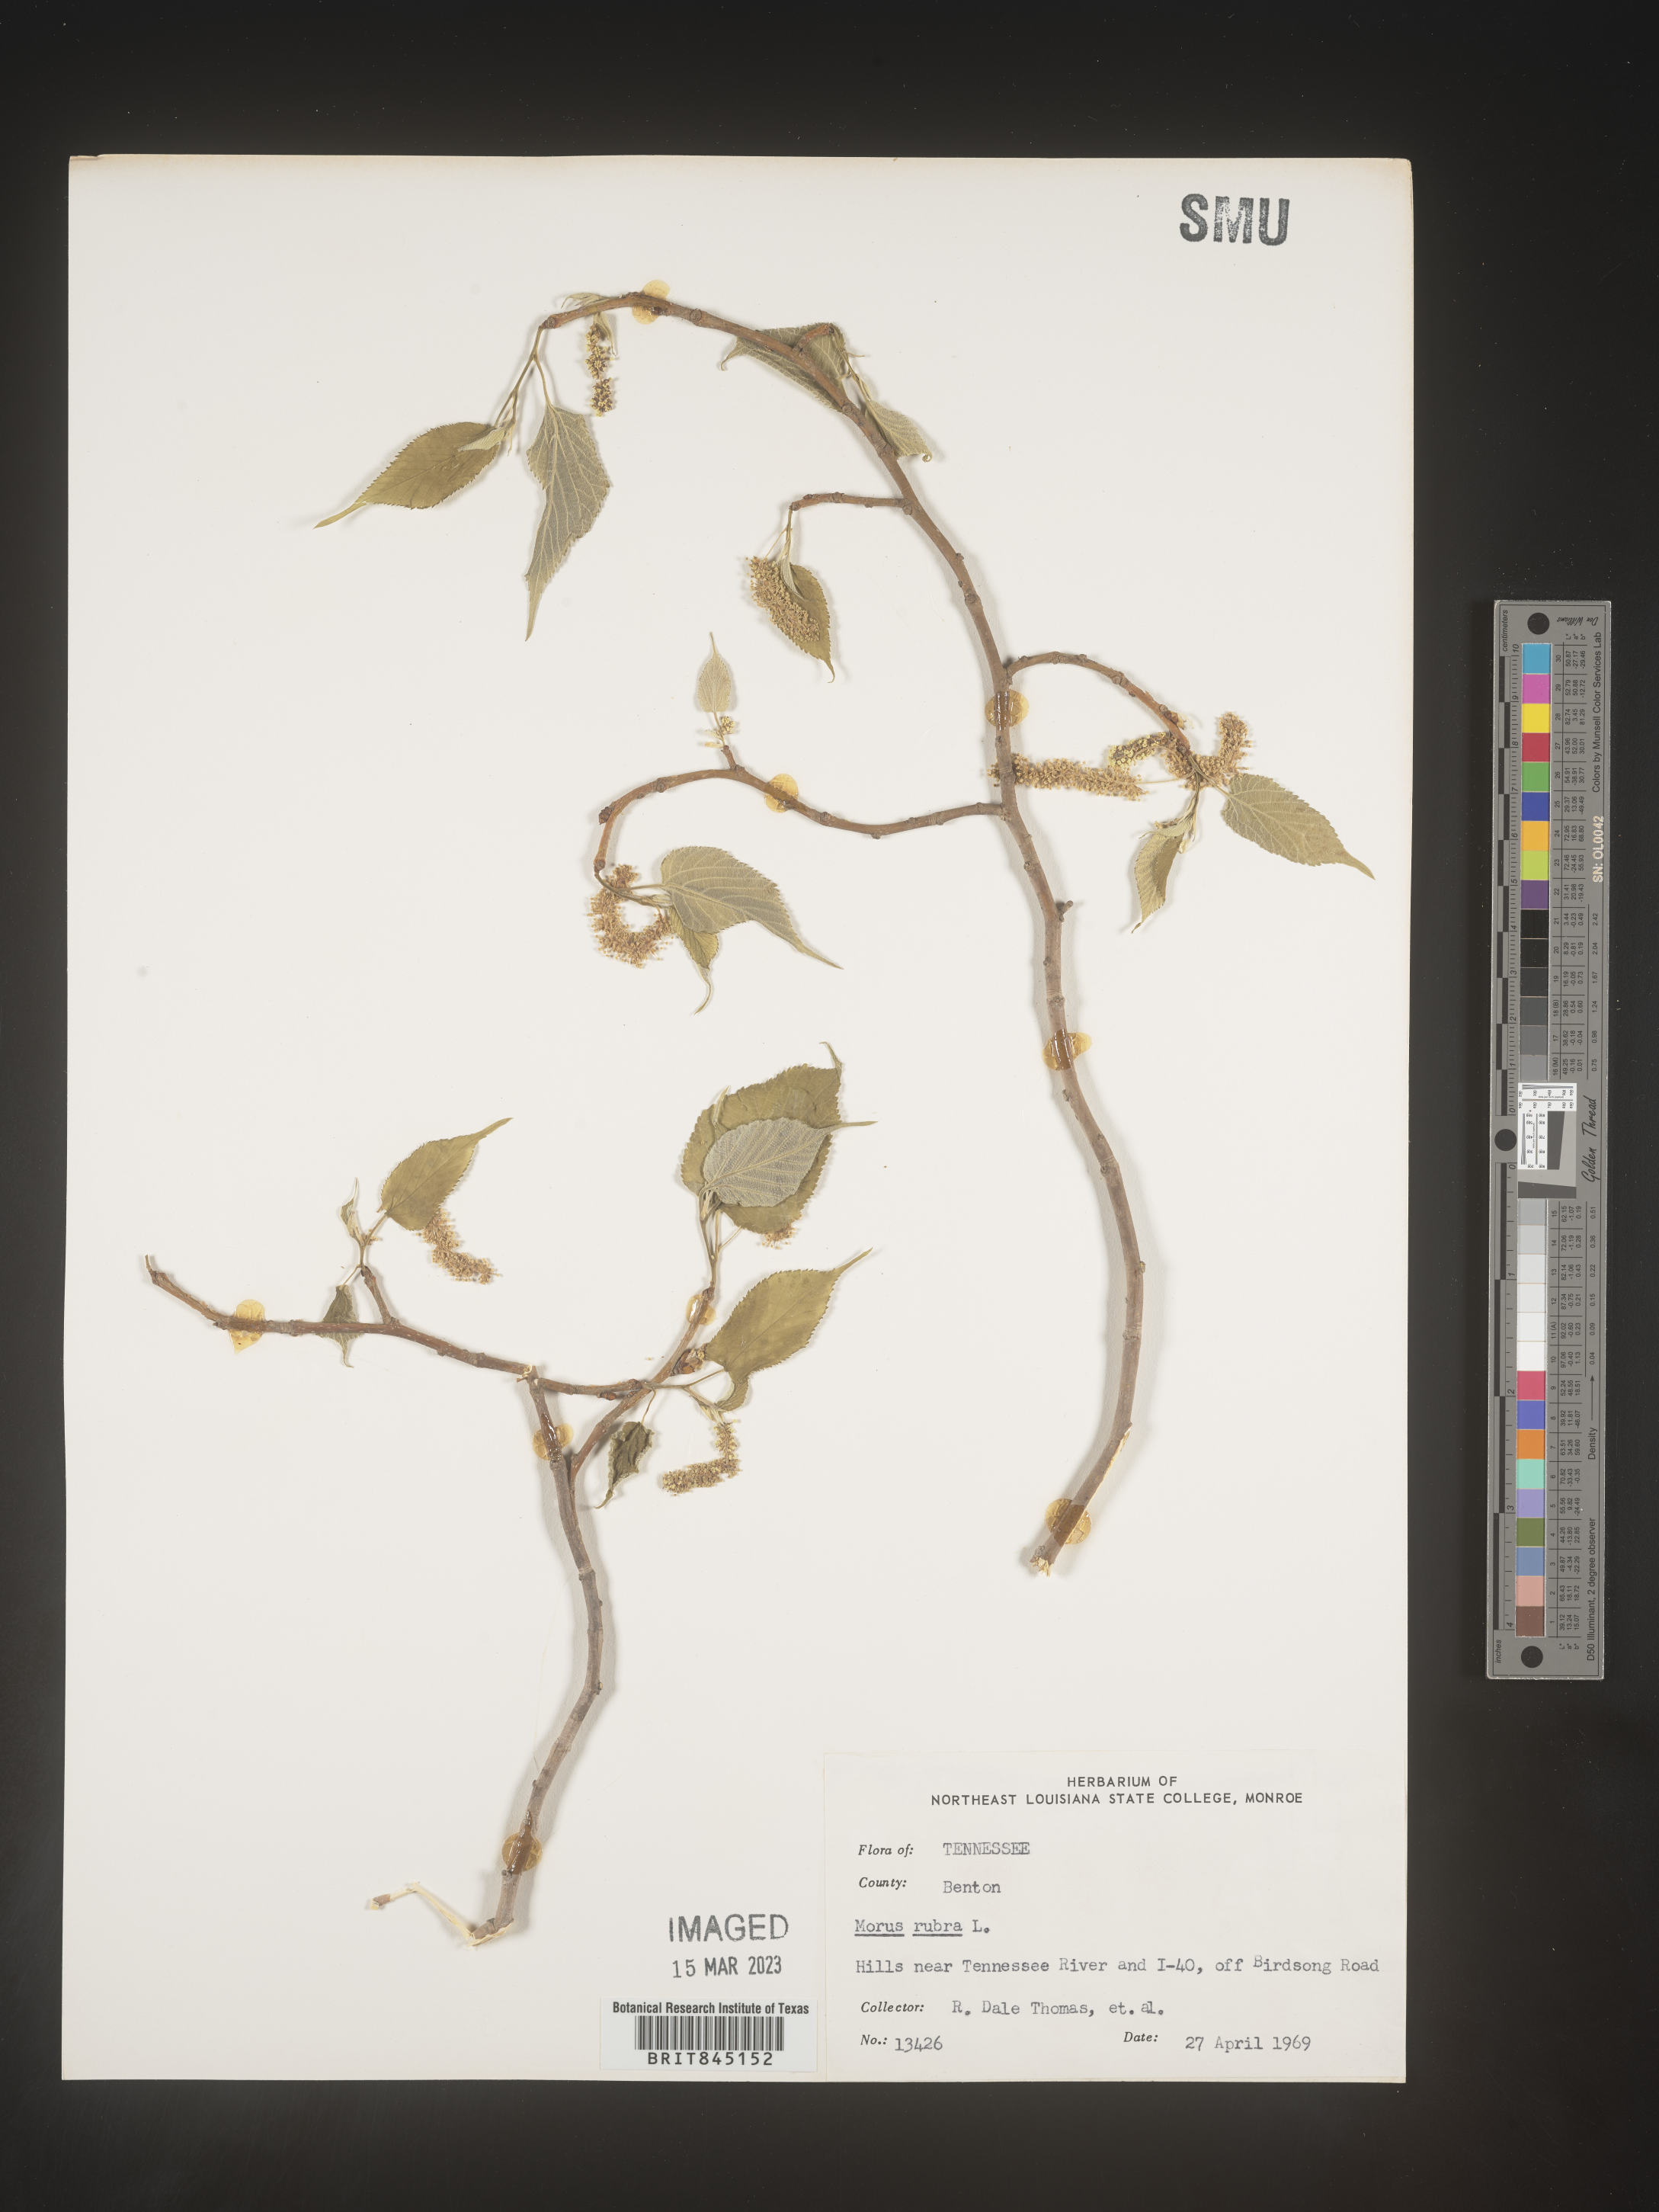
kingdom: Plantae
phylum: Tracheophyta
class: Magnoliopsida
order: Rosales
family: Moraceae
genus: Morus
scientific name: Morus rubra
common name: Red mulberry
